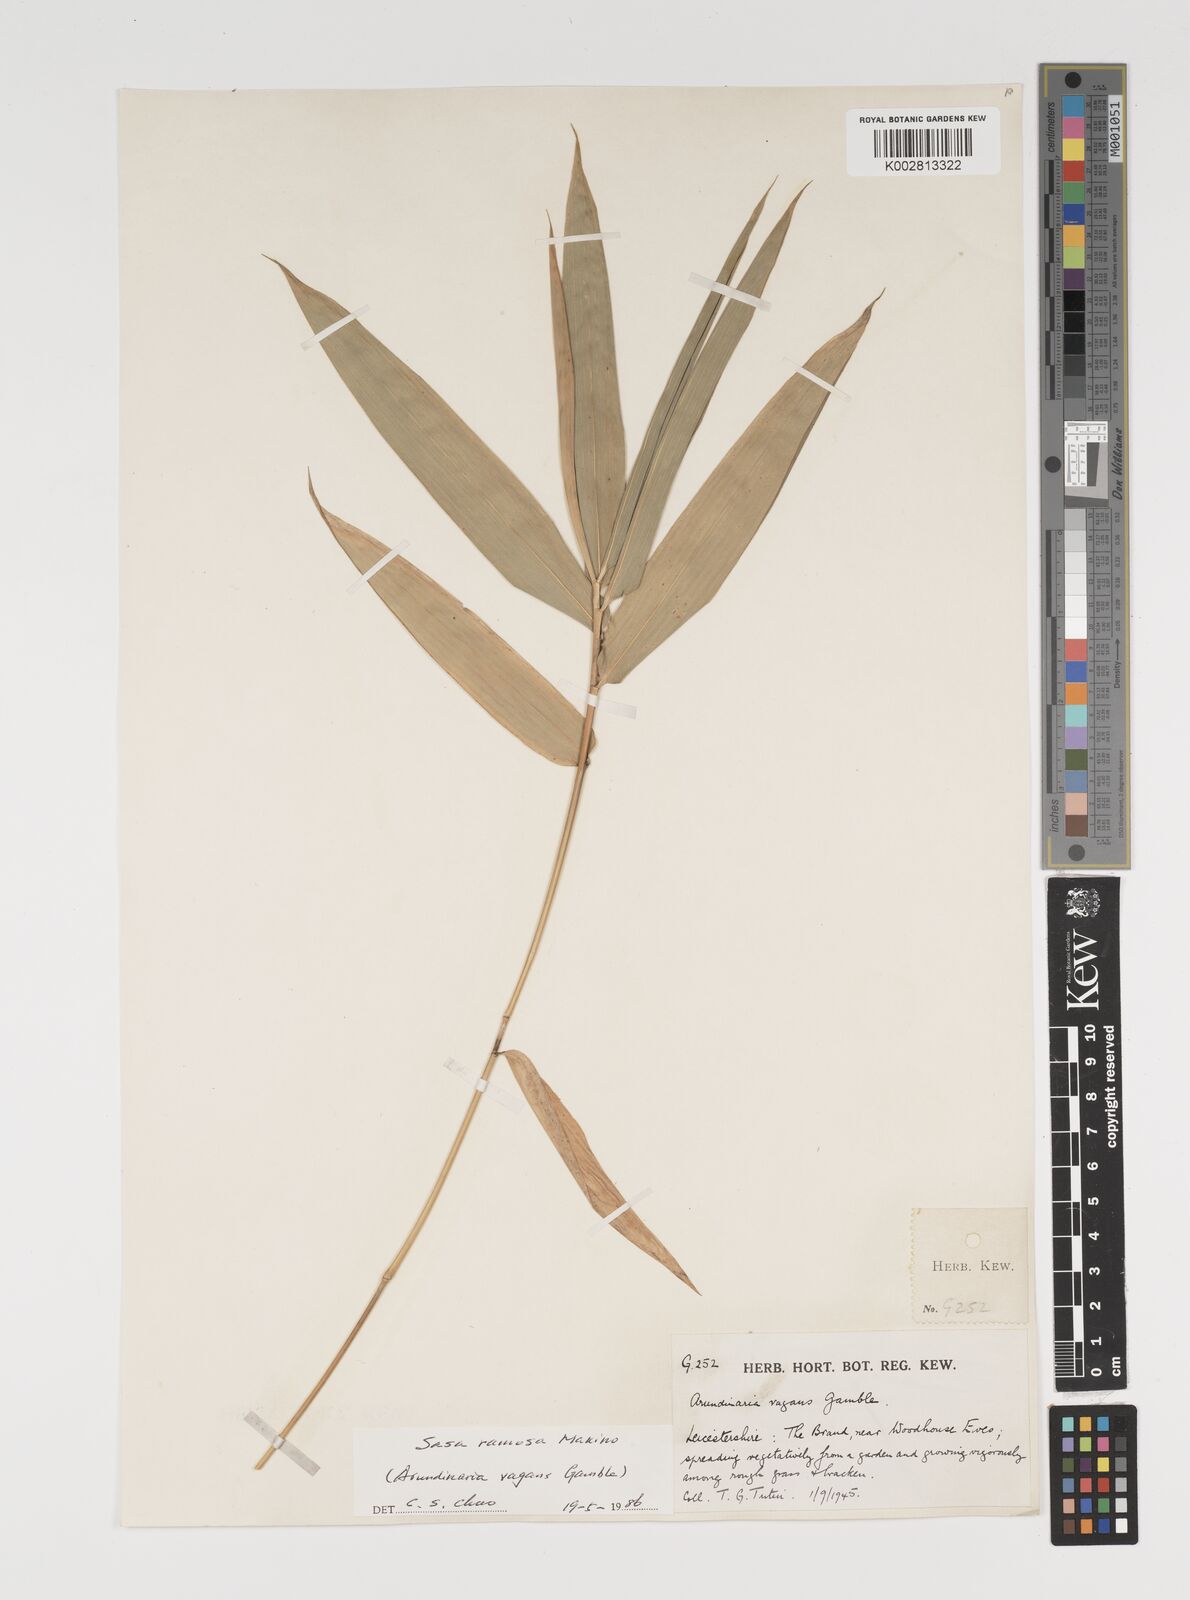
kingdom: Plantae
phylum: Tracheophyta
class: Liliopsida
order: Poales
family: Poaceae
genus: Sasaella
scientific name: Sasaella ramosa
